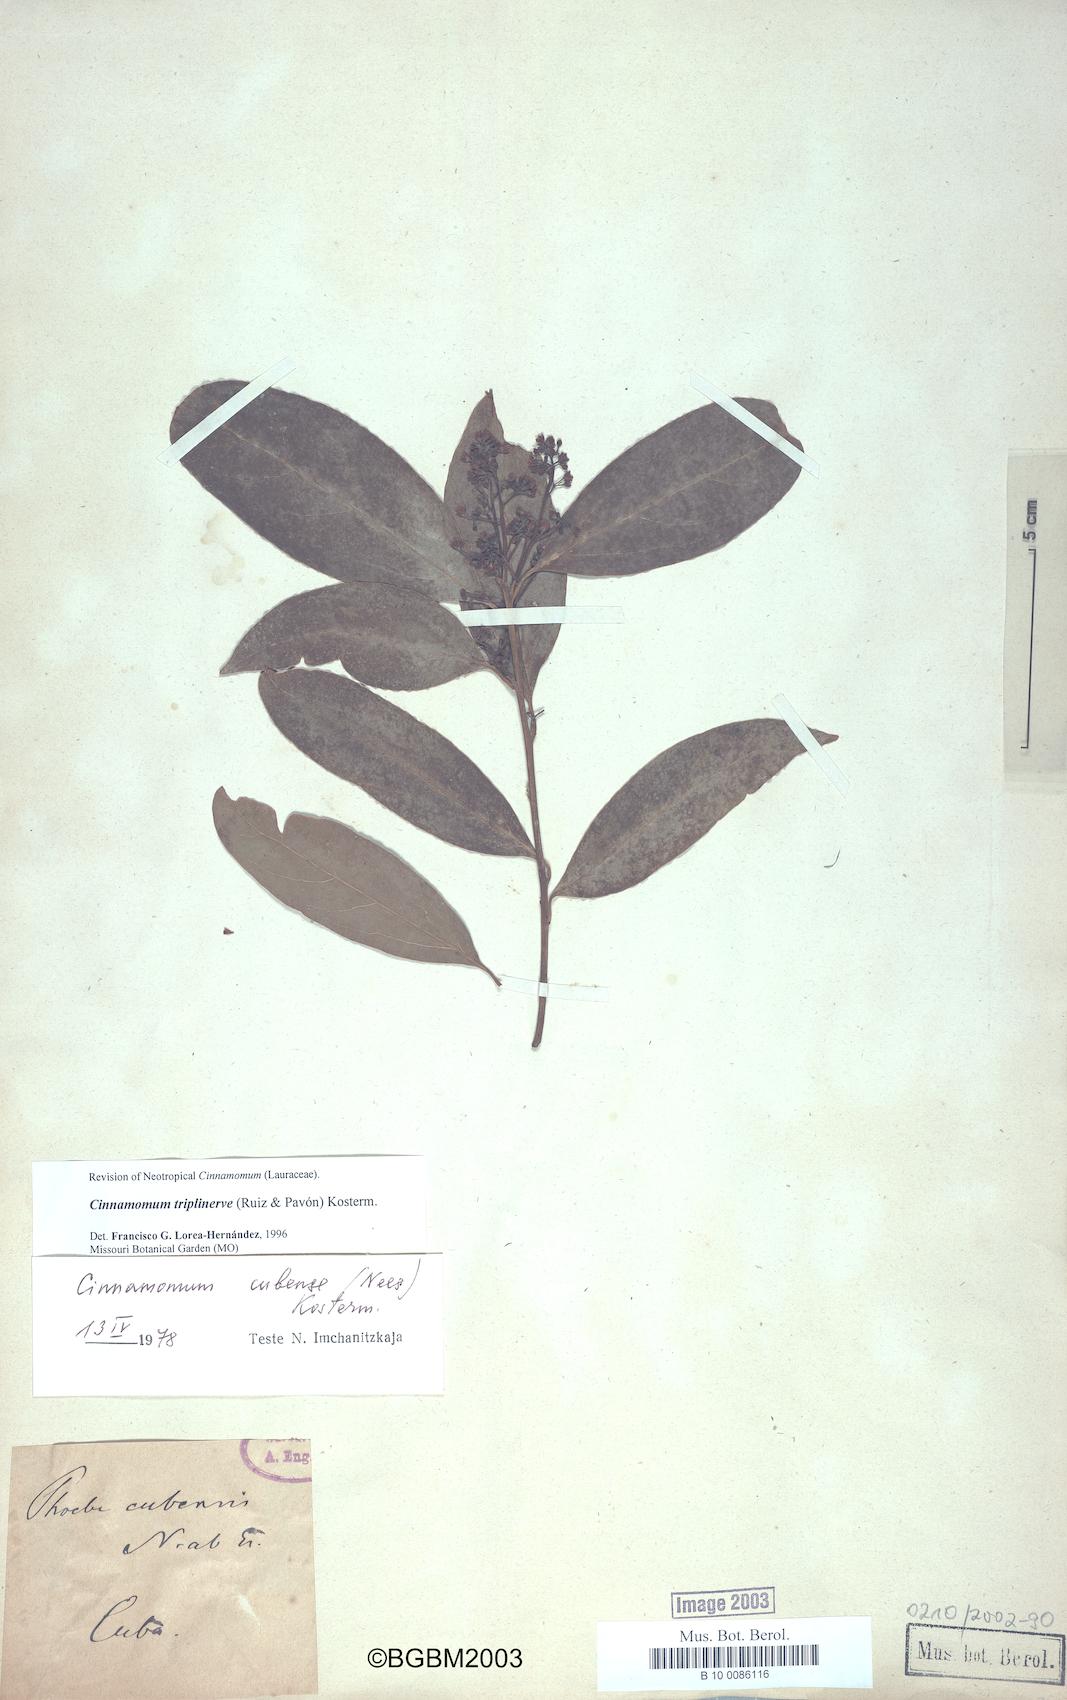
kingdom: Plantae
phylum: Tracheophyta
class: Magnoliopsida
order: Laurales
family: Lauraceae
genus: Aiouea
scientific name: Aiouea montana
